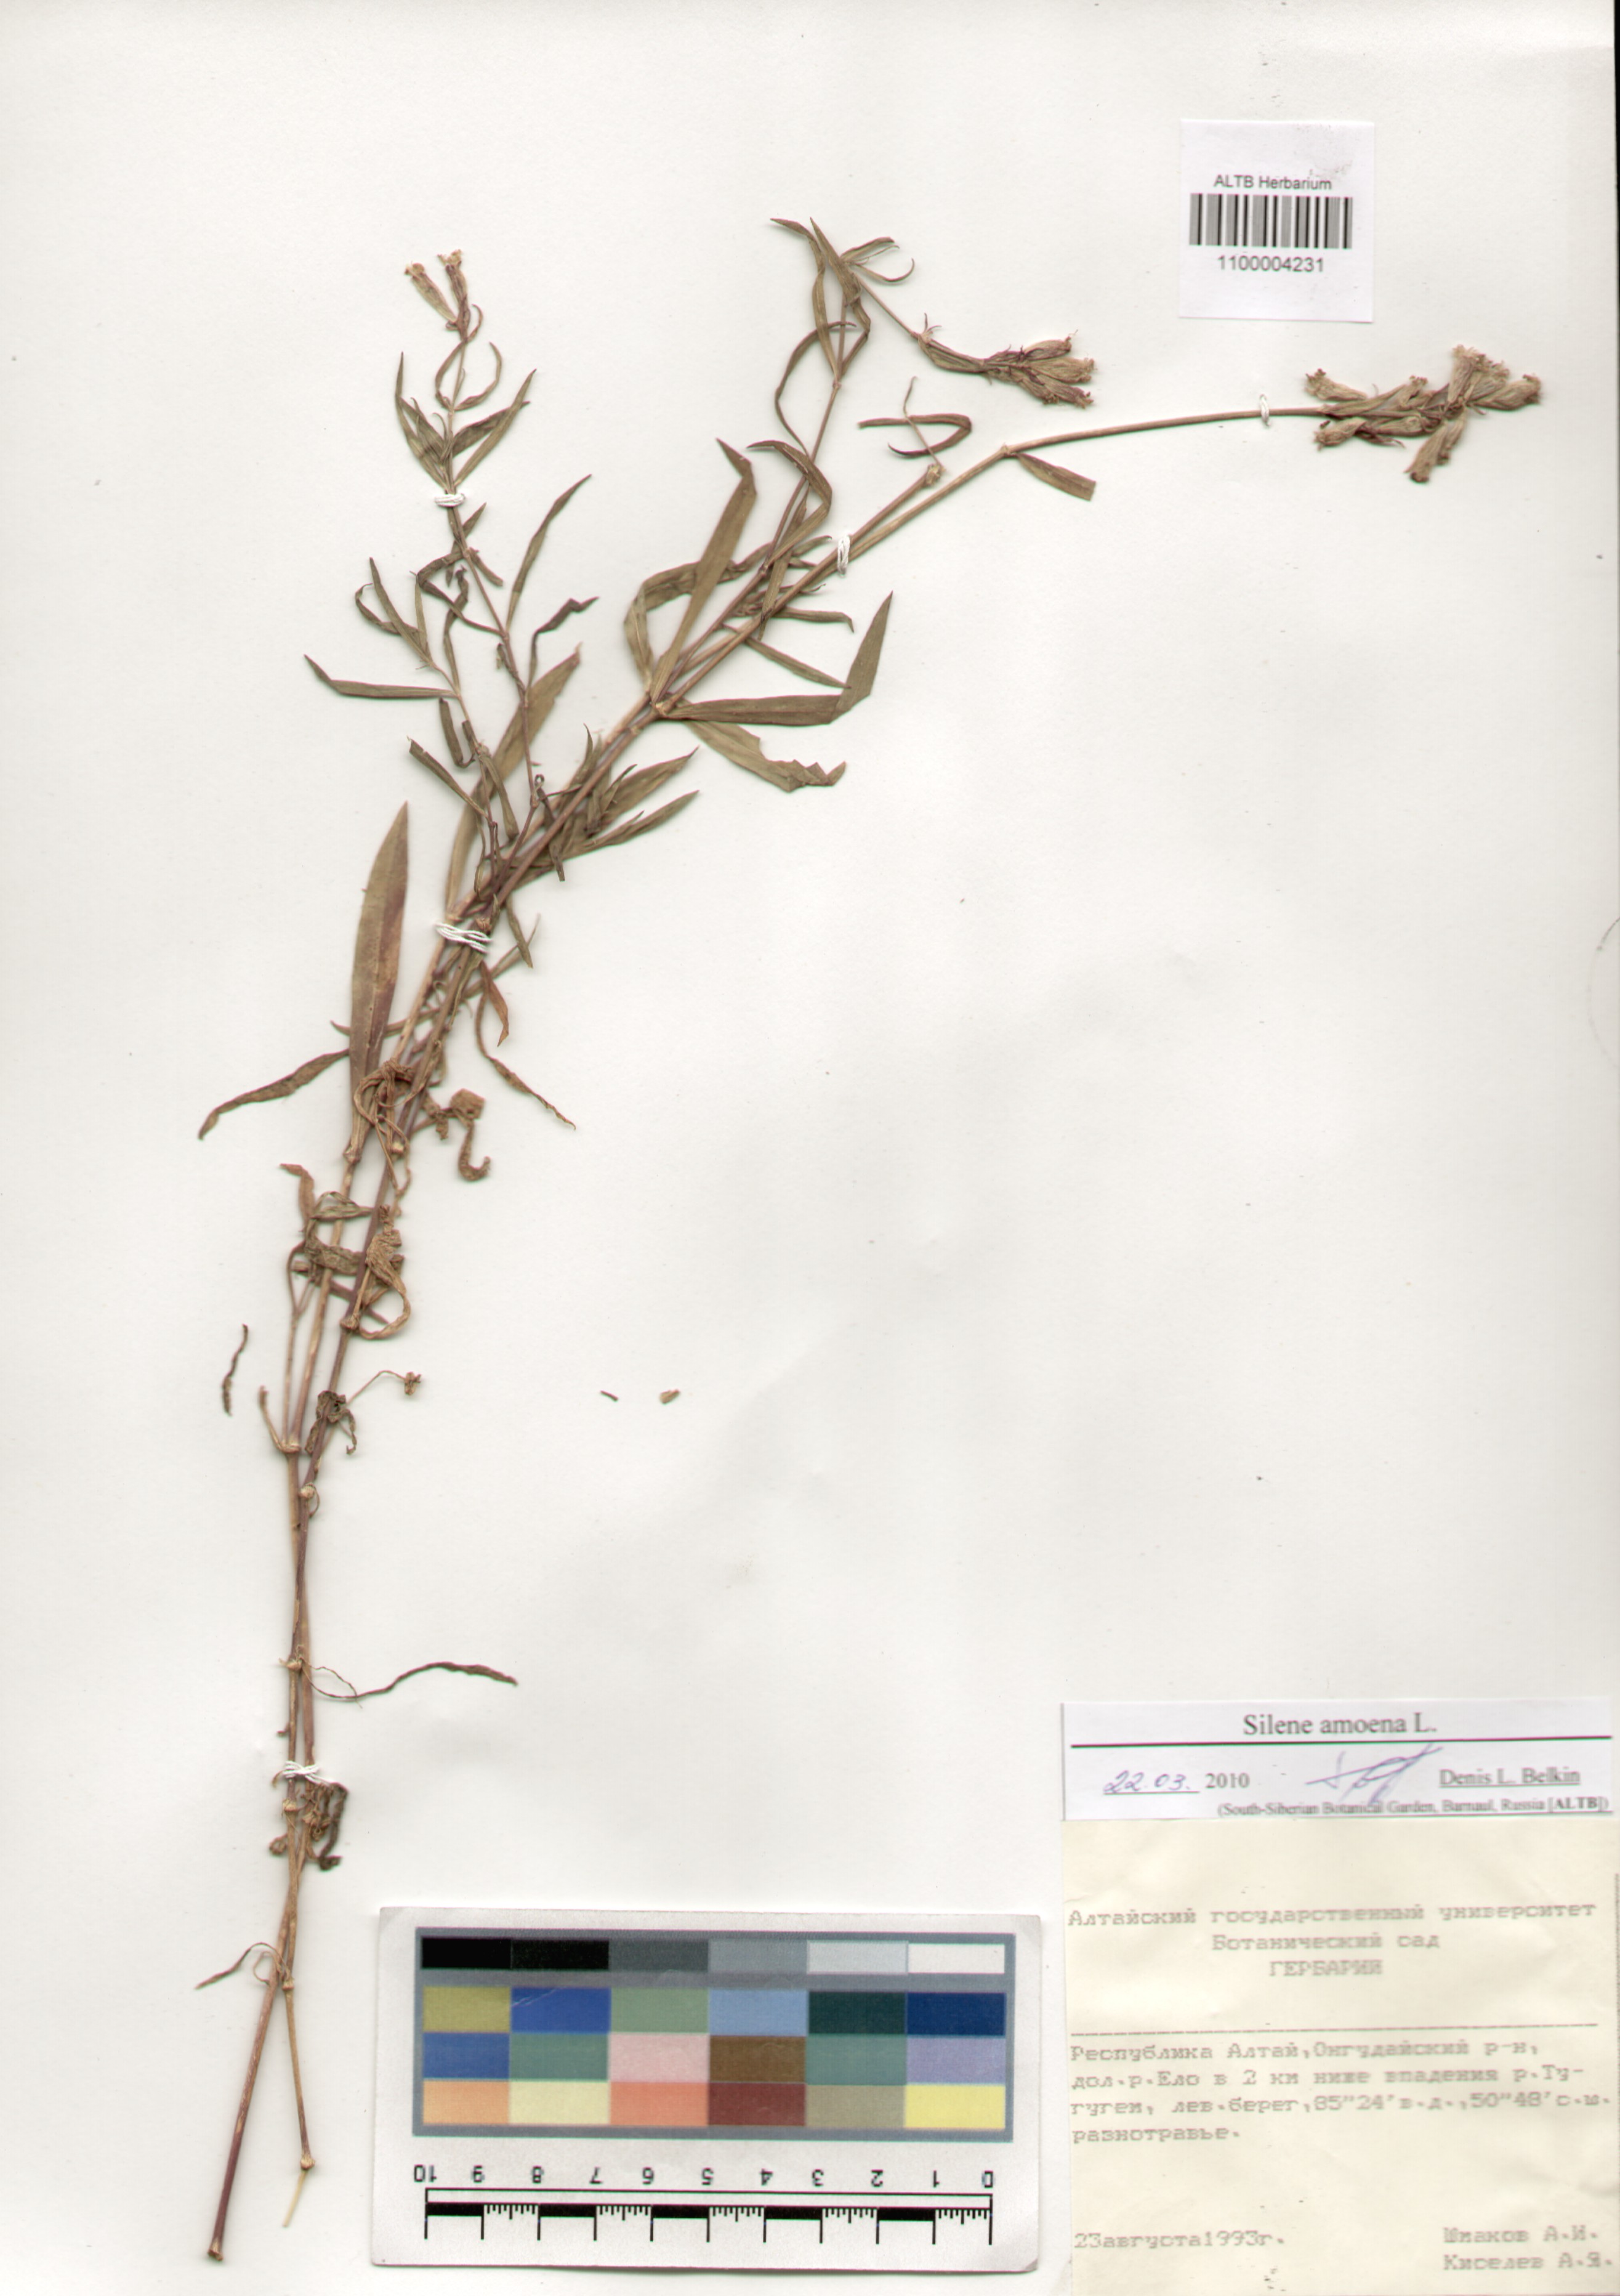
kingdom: Plantae
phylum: Tracheophyta
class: Magnoliopsida
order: Caryophyllales
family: Caryophyllaceae
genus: Silene
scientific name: Silene amoena
